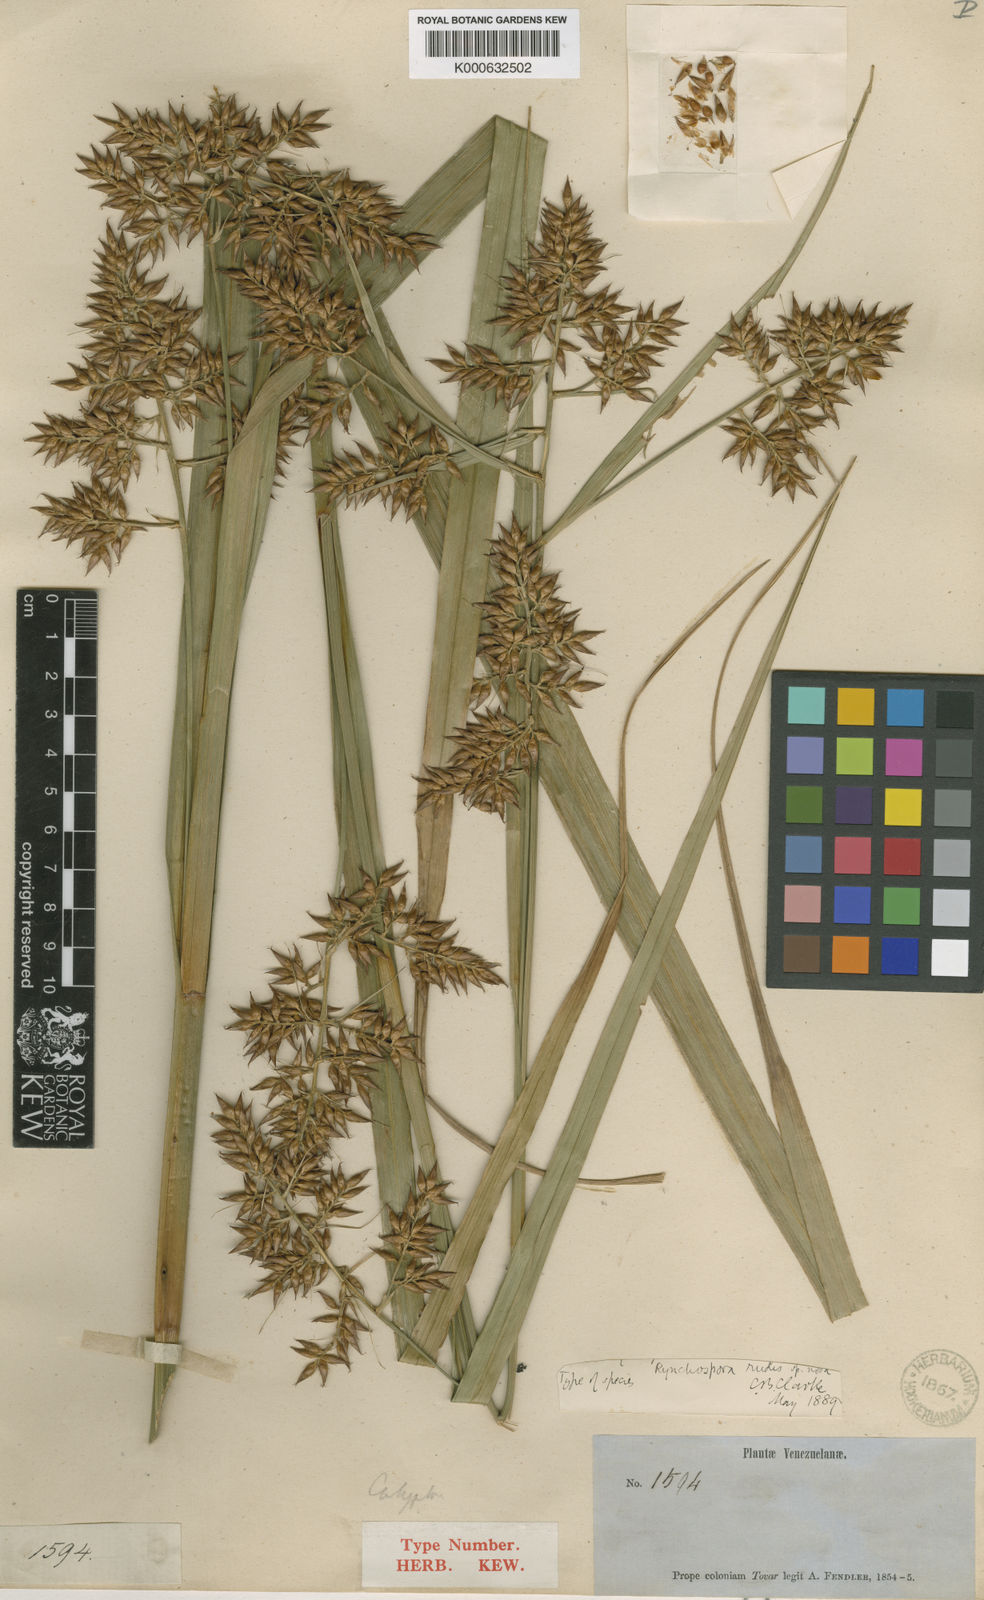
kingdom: Plantae
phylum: Tracheophyta
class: Liliopsida
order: Poales
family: Cyperaceae
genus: Rhynchospora
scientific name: Rhynchospora rudis
